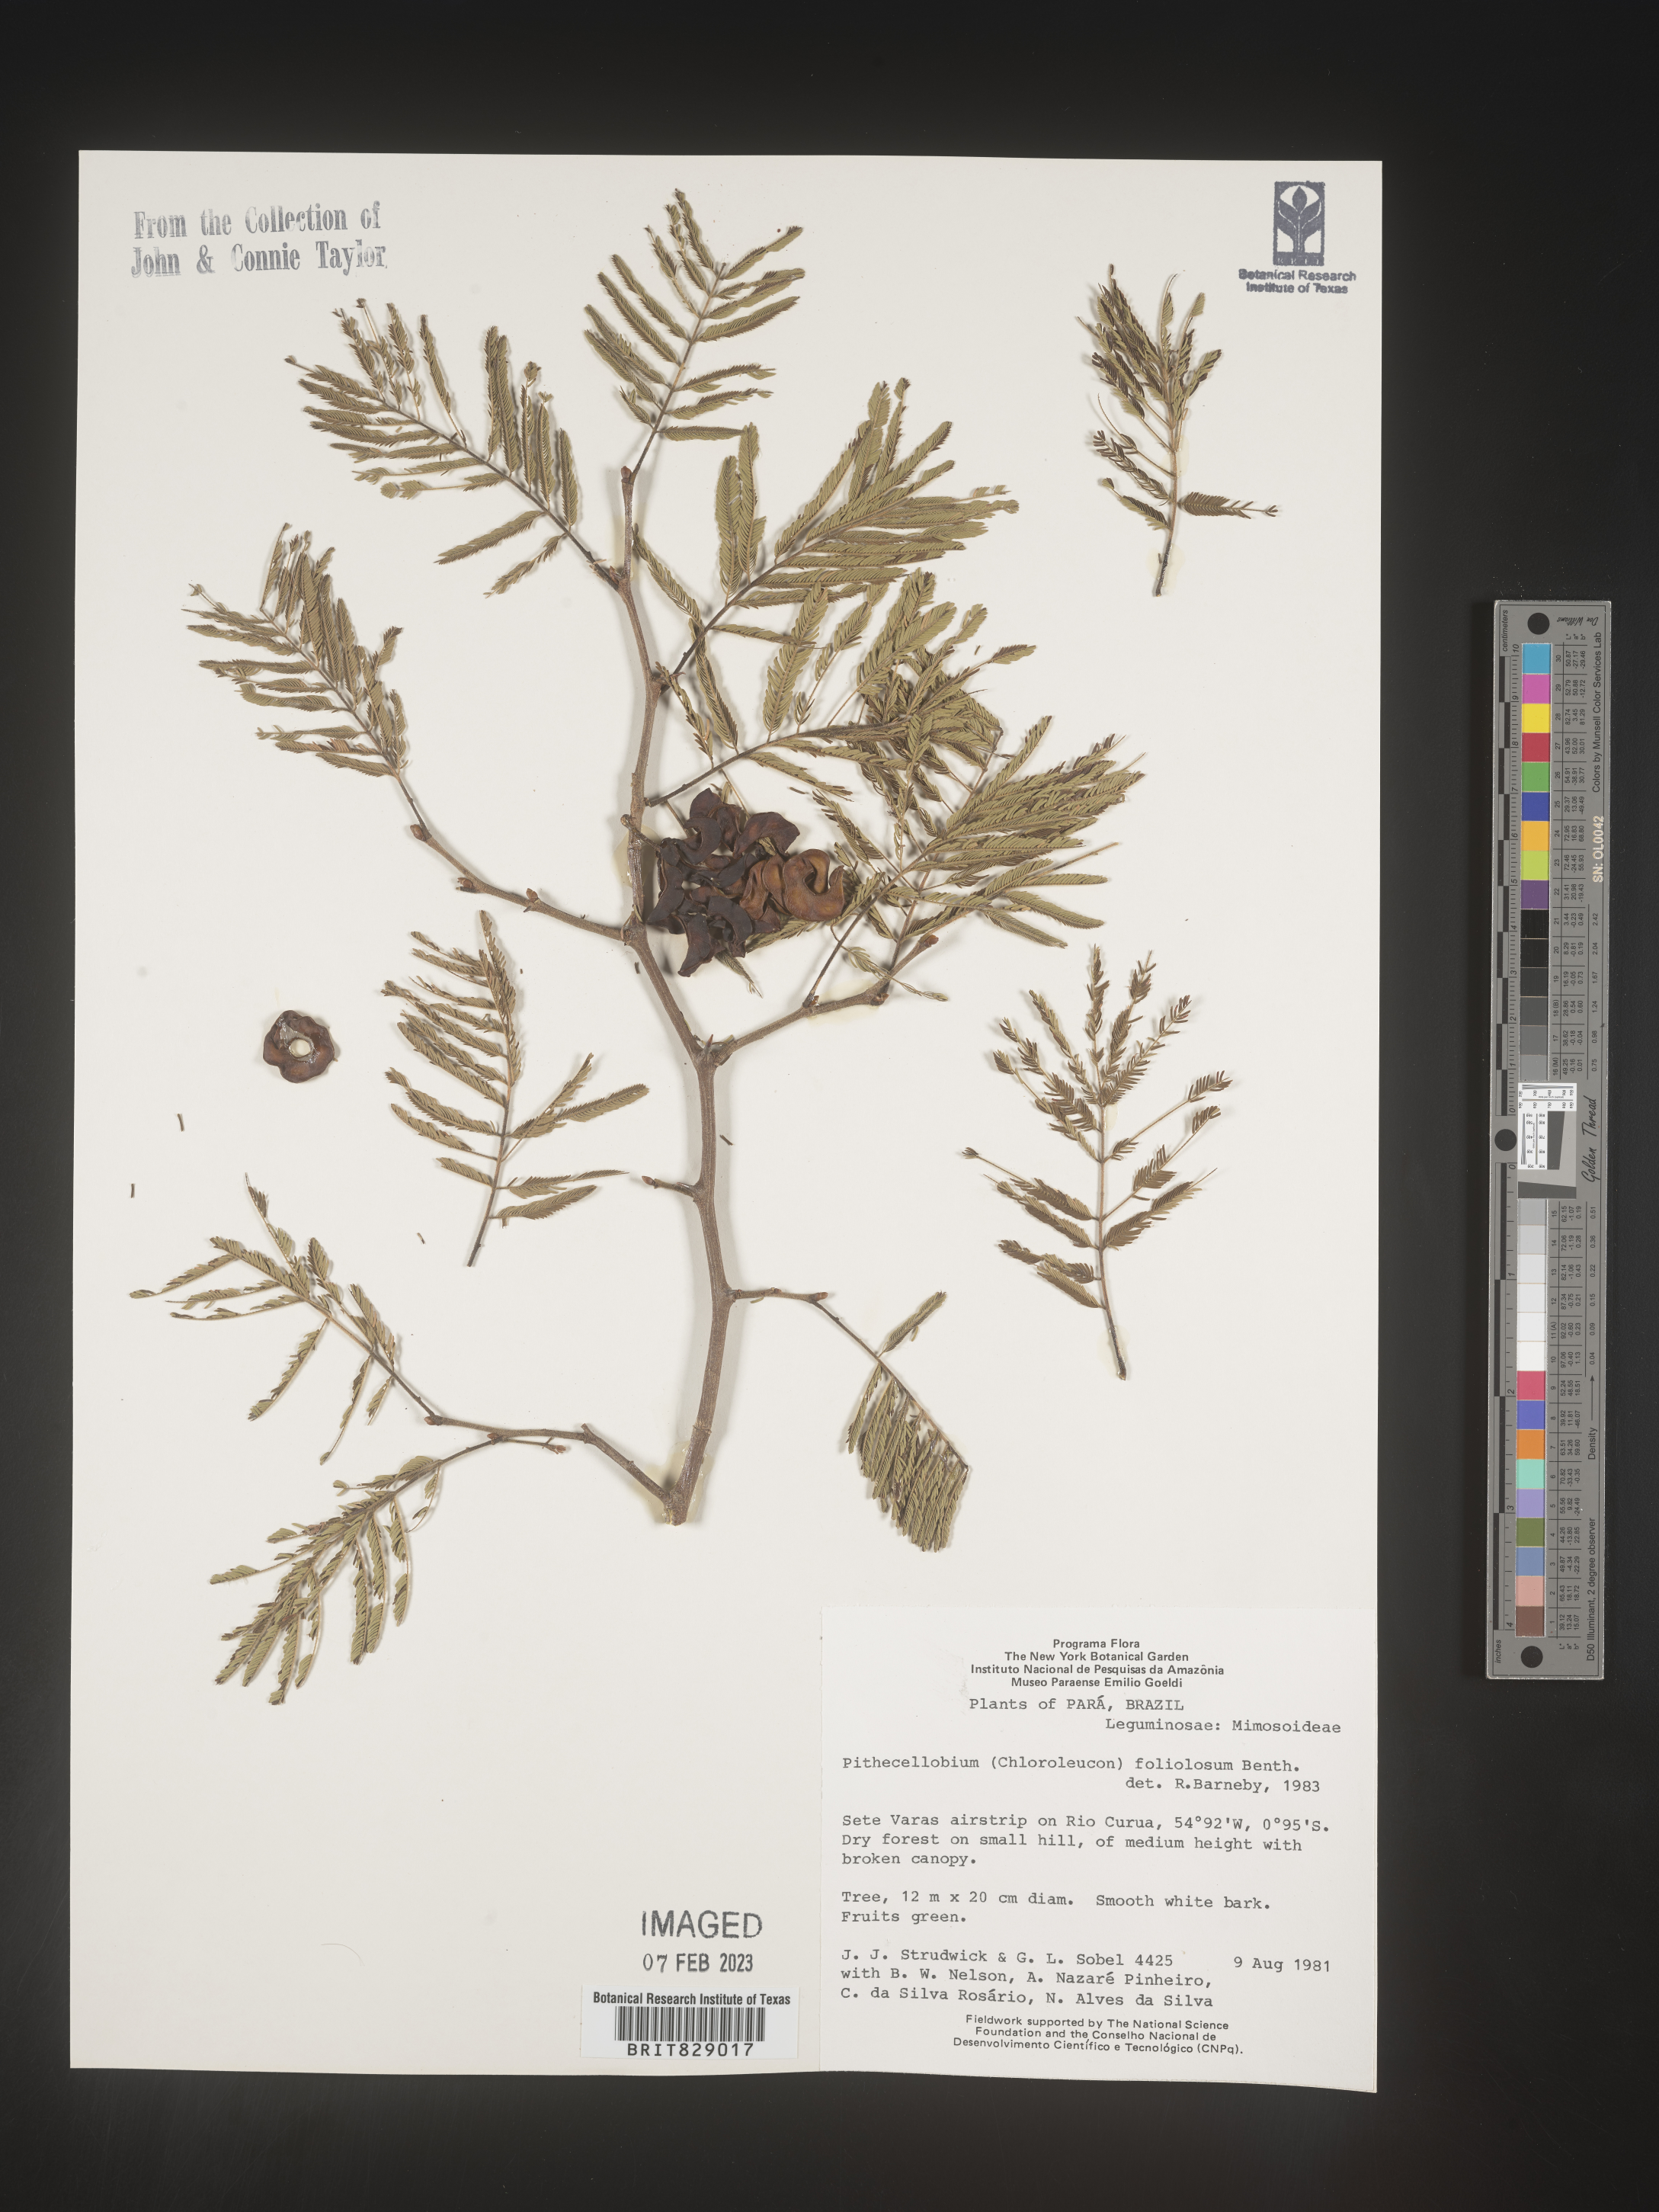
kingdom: Plantae
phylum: Tracheophyta
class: Magnoliopsida
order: Fabales
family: Fabaceae
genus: Pithecellobium
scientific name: Pithecellobium
